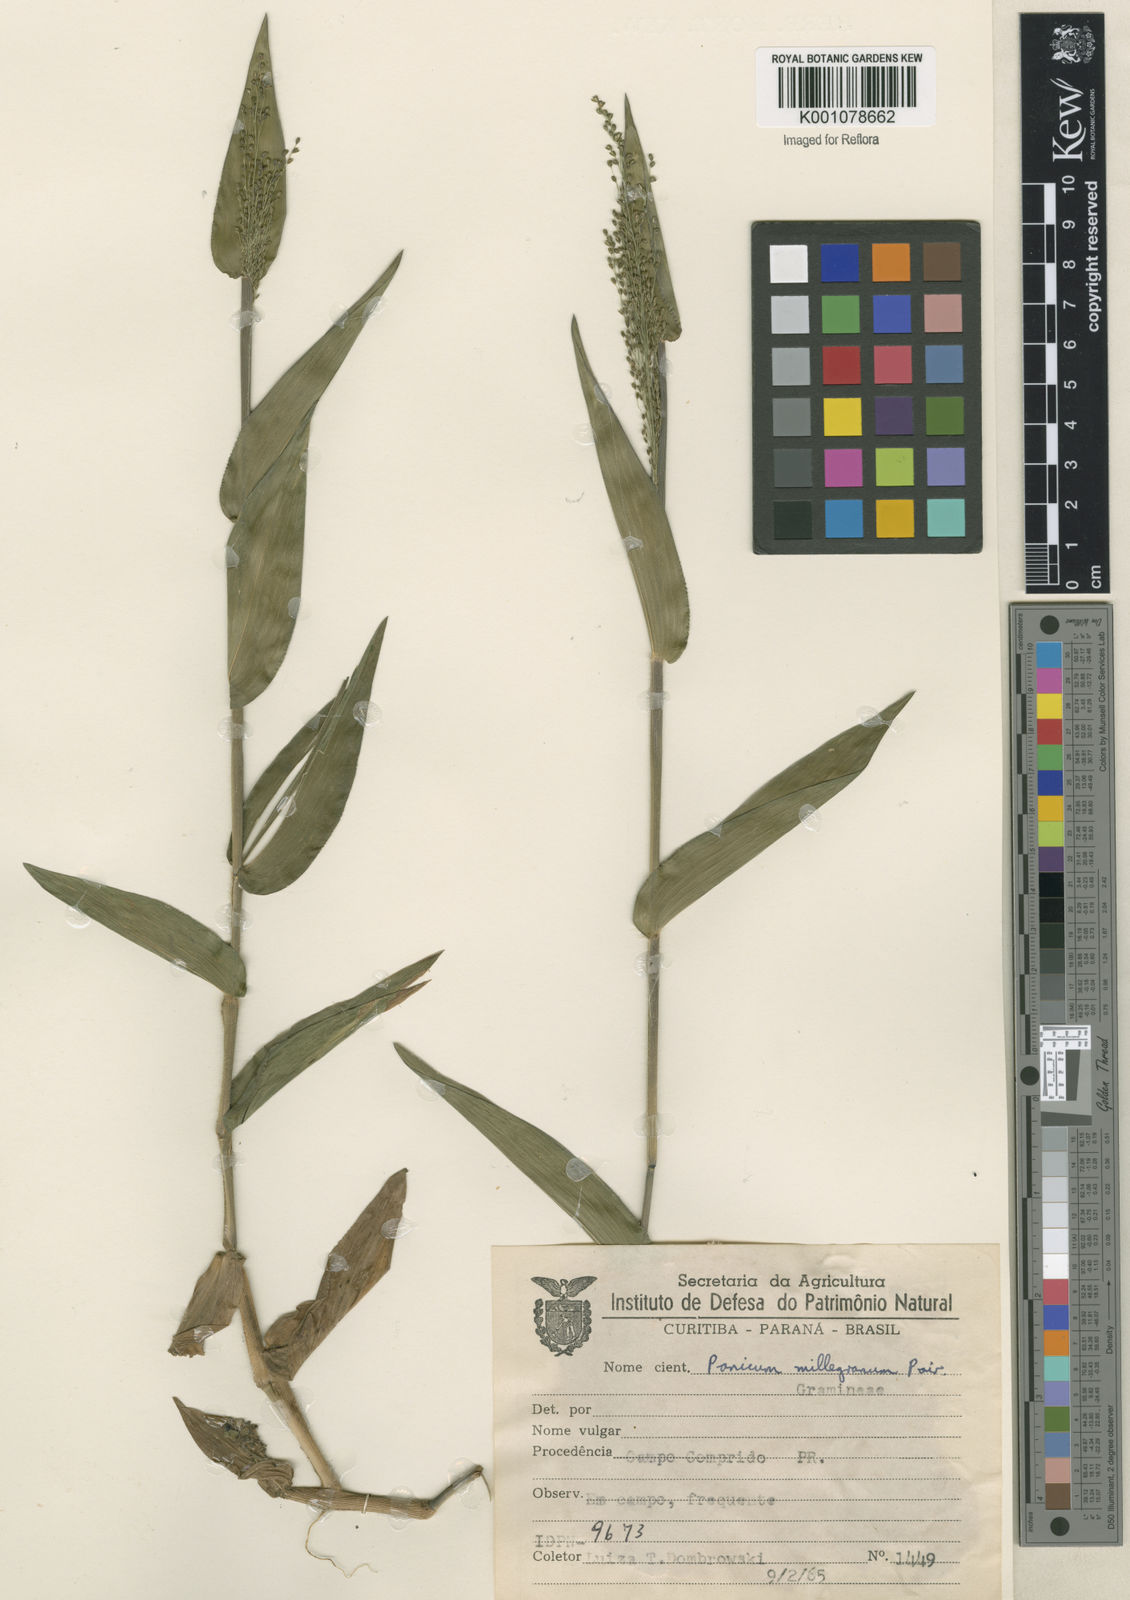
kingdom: Plantae
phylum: Tracheophyta
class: Liliopsida
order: Poales
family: Poaceae
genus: Panicum
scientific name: Panicum millegrana
